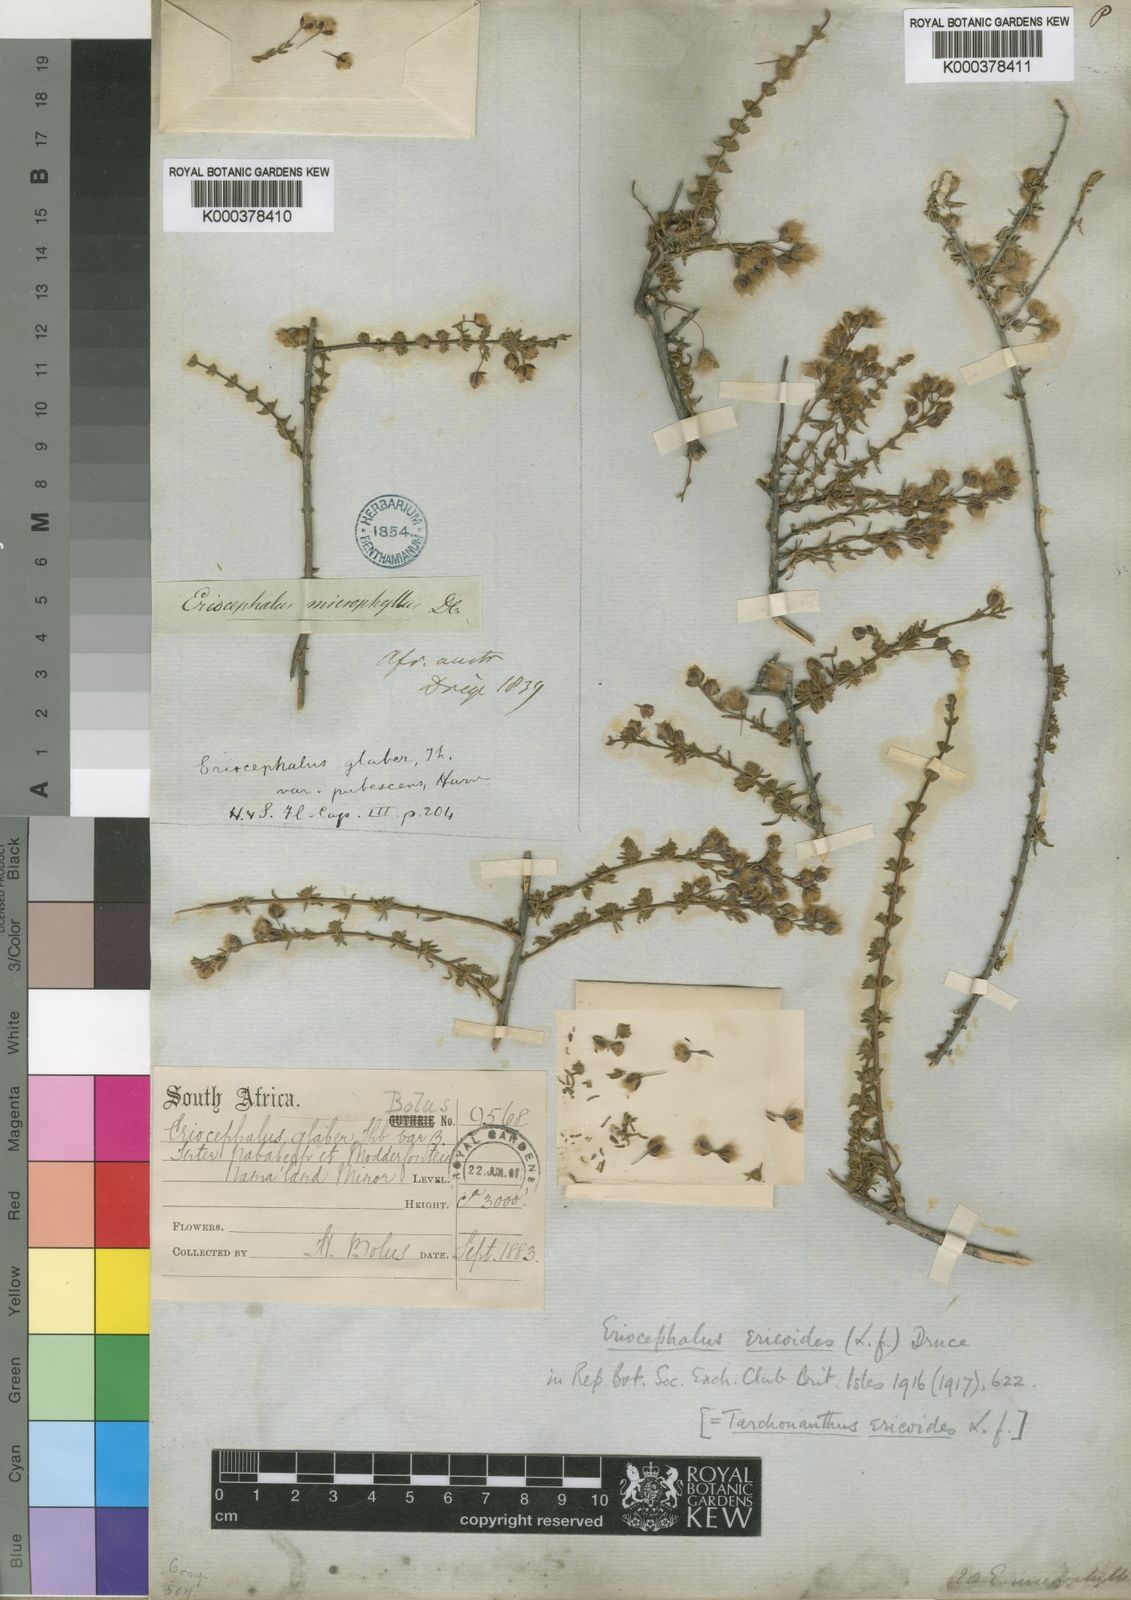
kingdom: Plantae
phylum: Tracheophyta
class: Magnoliopsida
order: Asterales
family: Asteraceae
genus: Eriocephalus
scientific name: Eriocephalus ericoides
